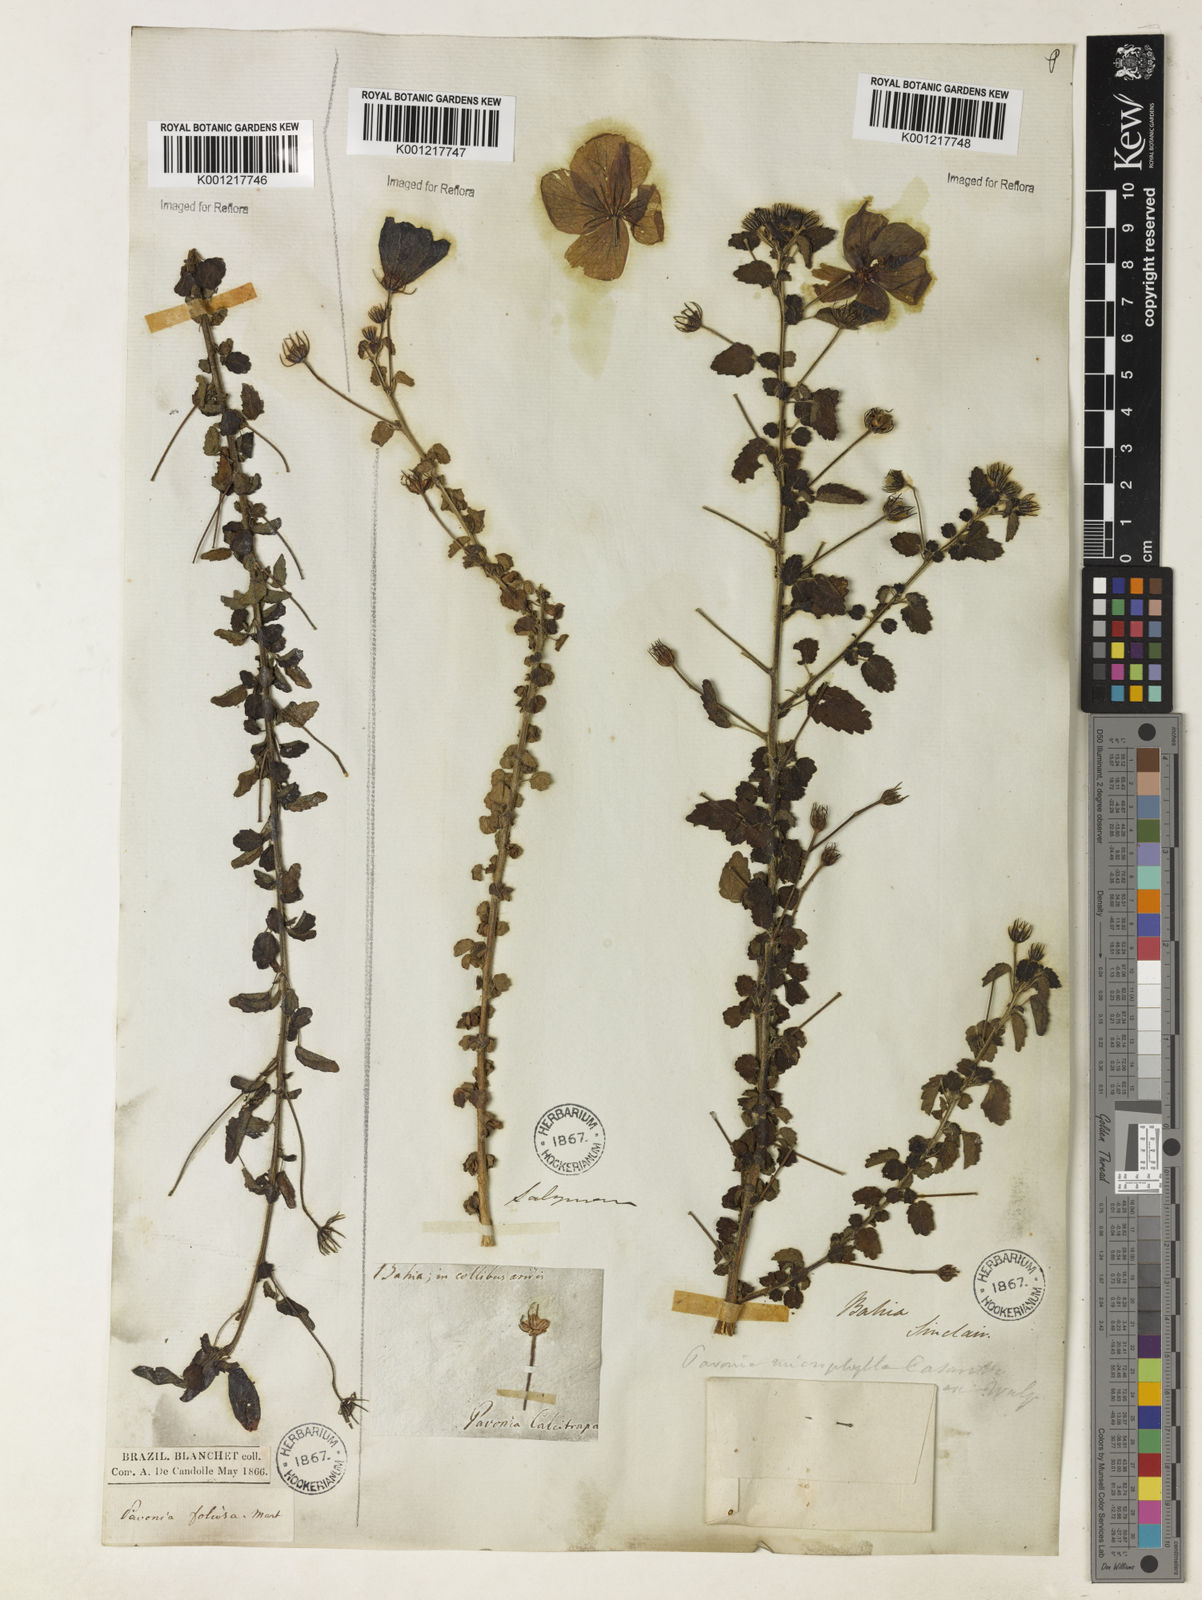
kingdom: Plantae
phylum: Tracheophyta
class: Magnoliopsida
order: Malvales
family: Malvaceae
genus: Pavonia
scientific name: Pavonia martii
